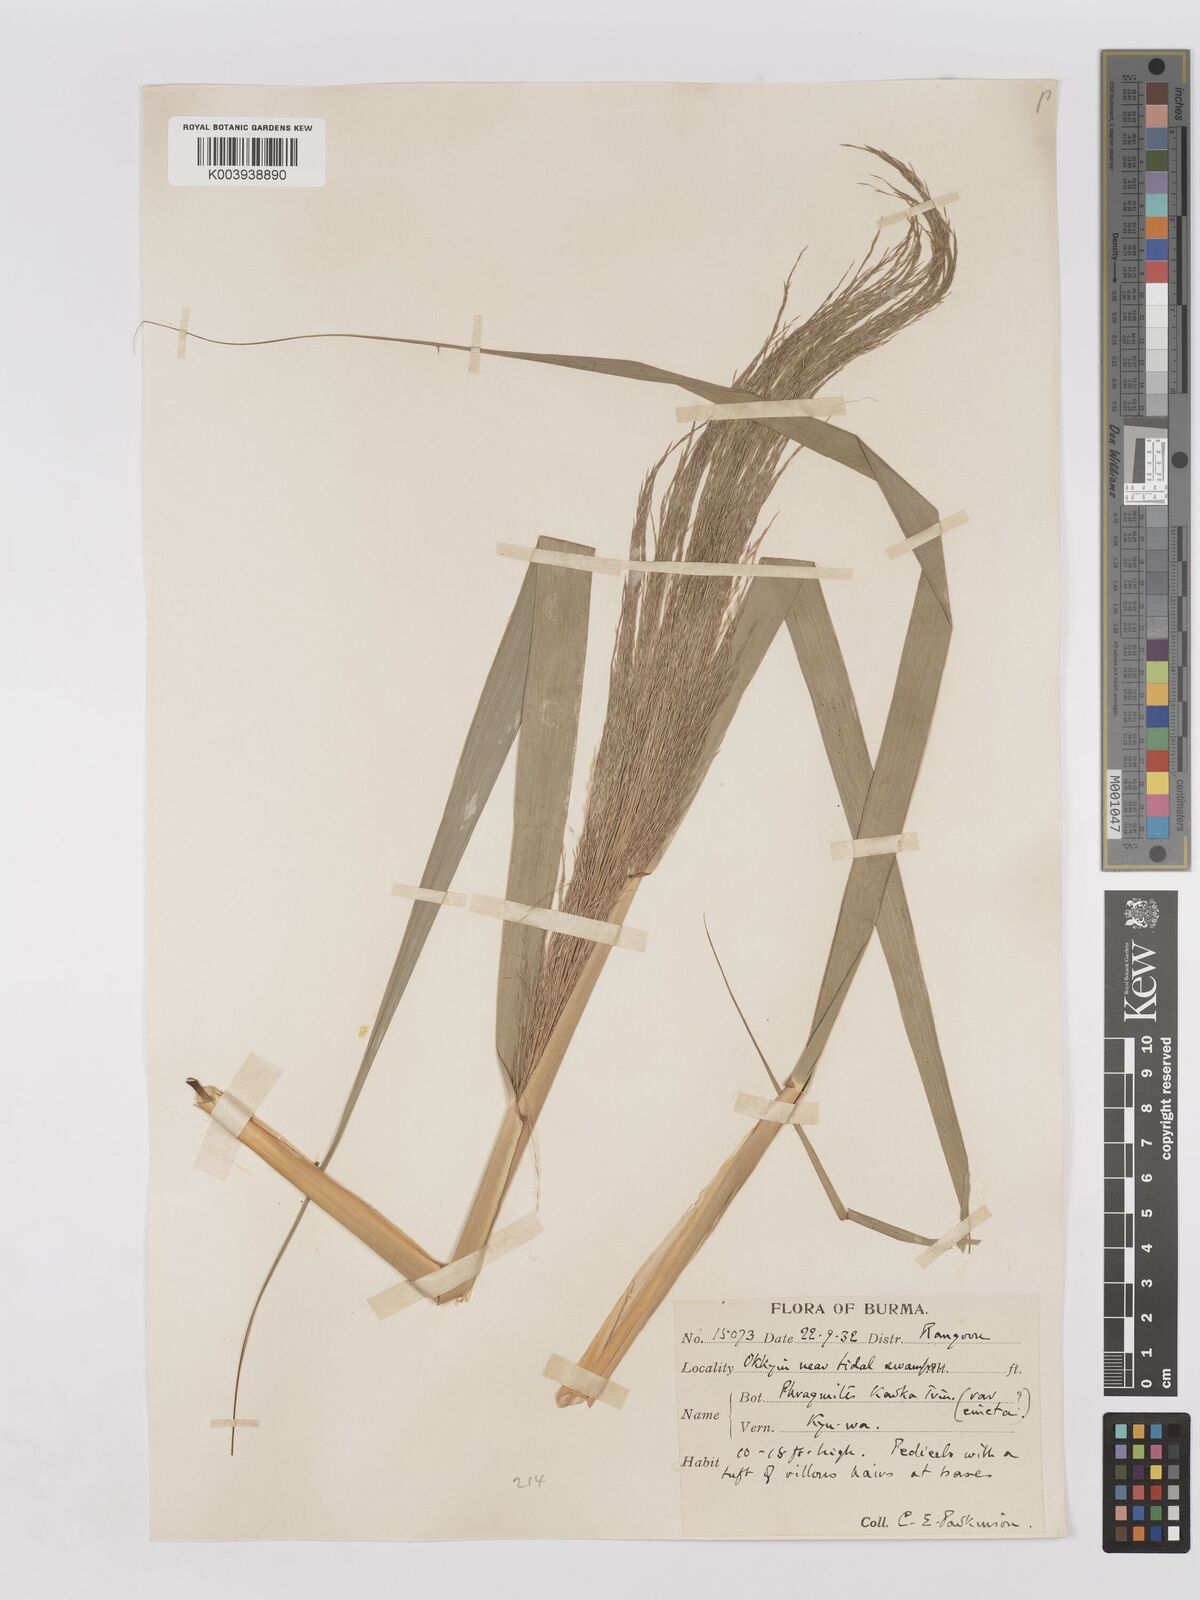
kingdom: Plantae
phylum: Tracheophyta
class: Liliopsida
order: Poales
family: Poaceae
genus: Phragmites
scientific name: Phragmites karka
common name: Tropical reed
